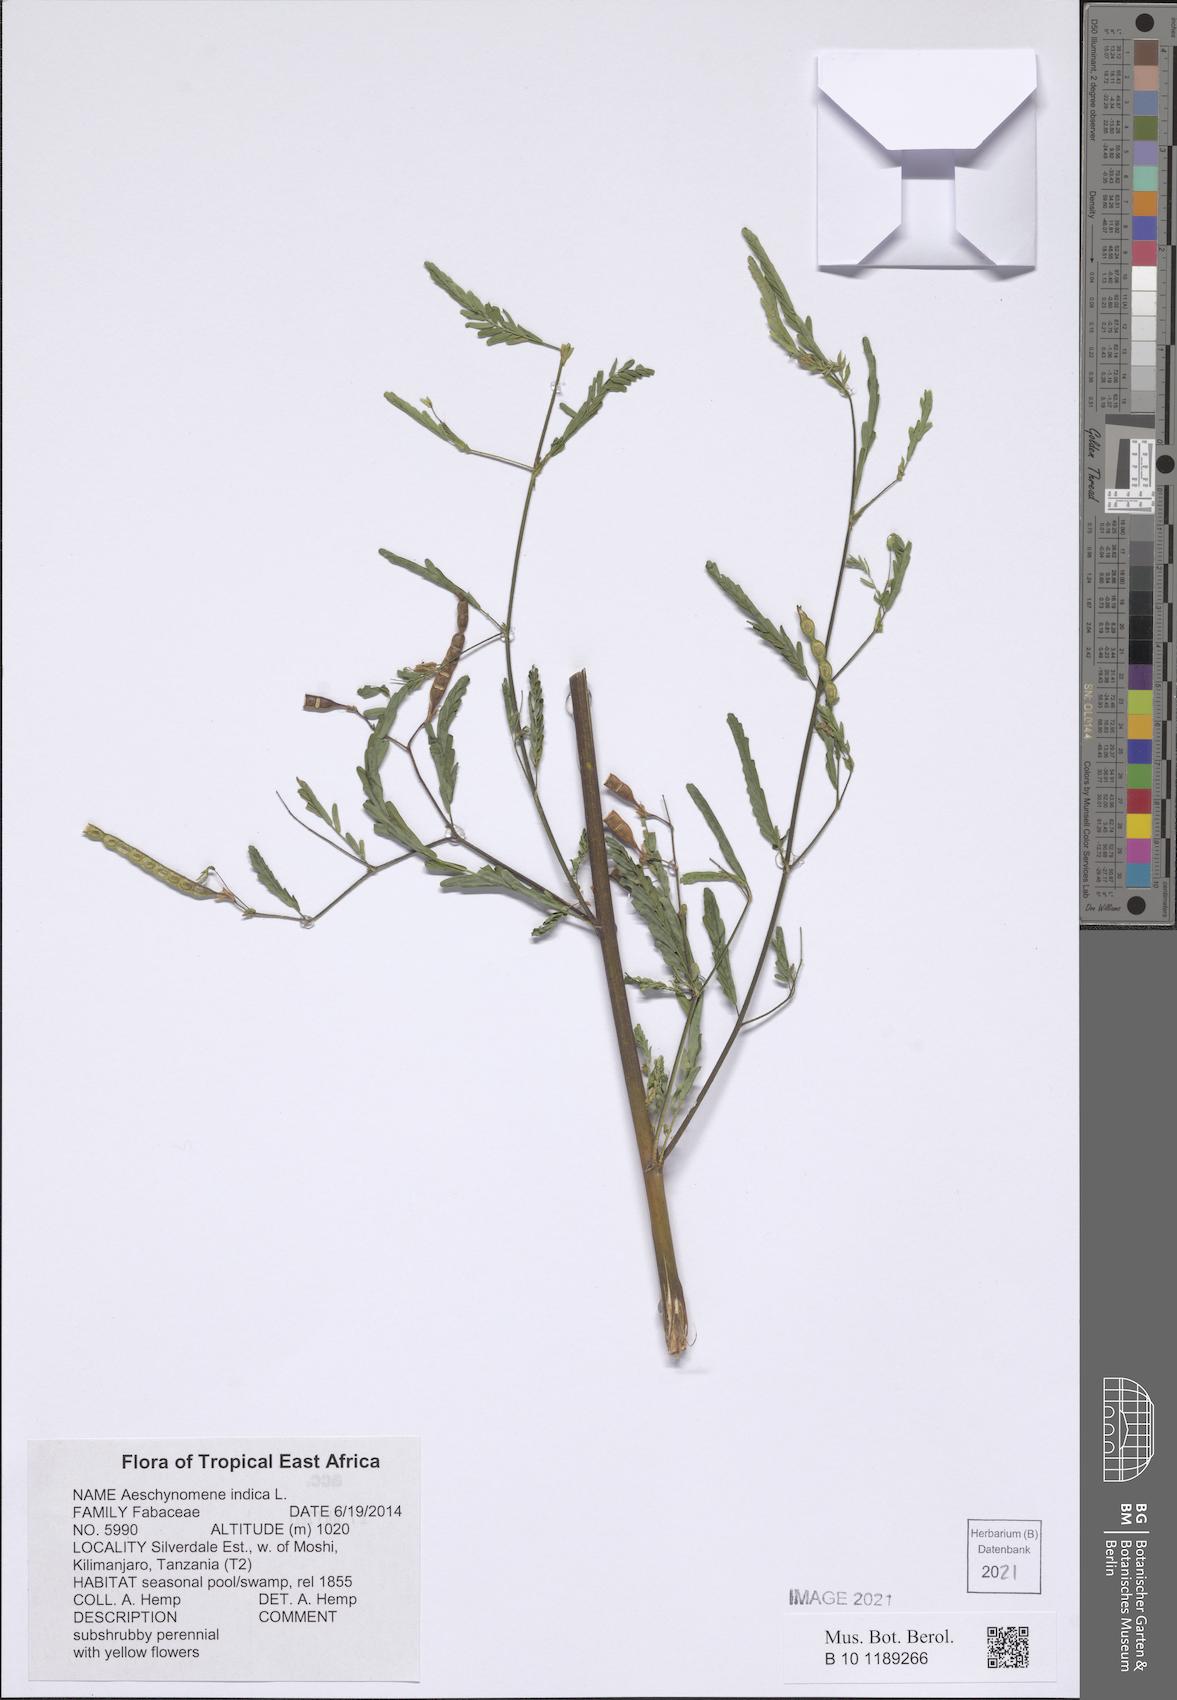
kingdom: Plantae
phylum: Tracheophyta
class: Magnoliopsida
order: Fabales
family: Fabaceae
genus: Aeschynomene
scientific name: Aeschynomene indica
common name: Indian jointvetch
